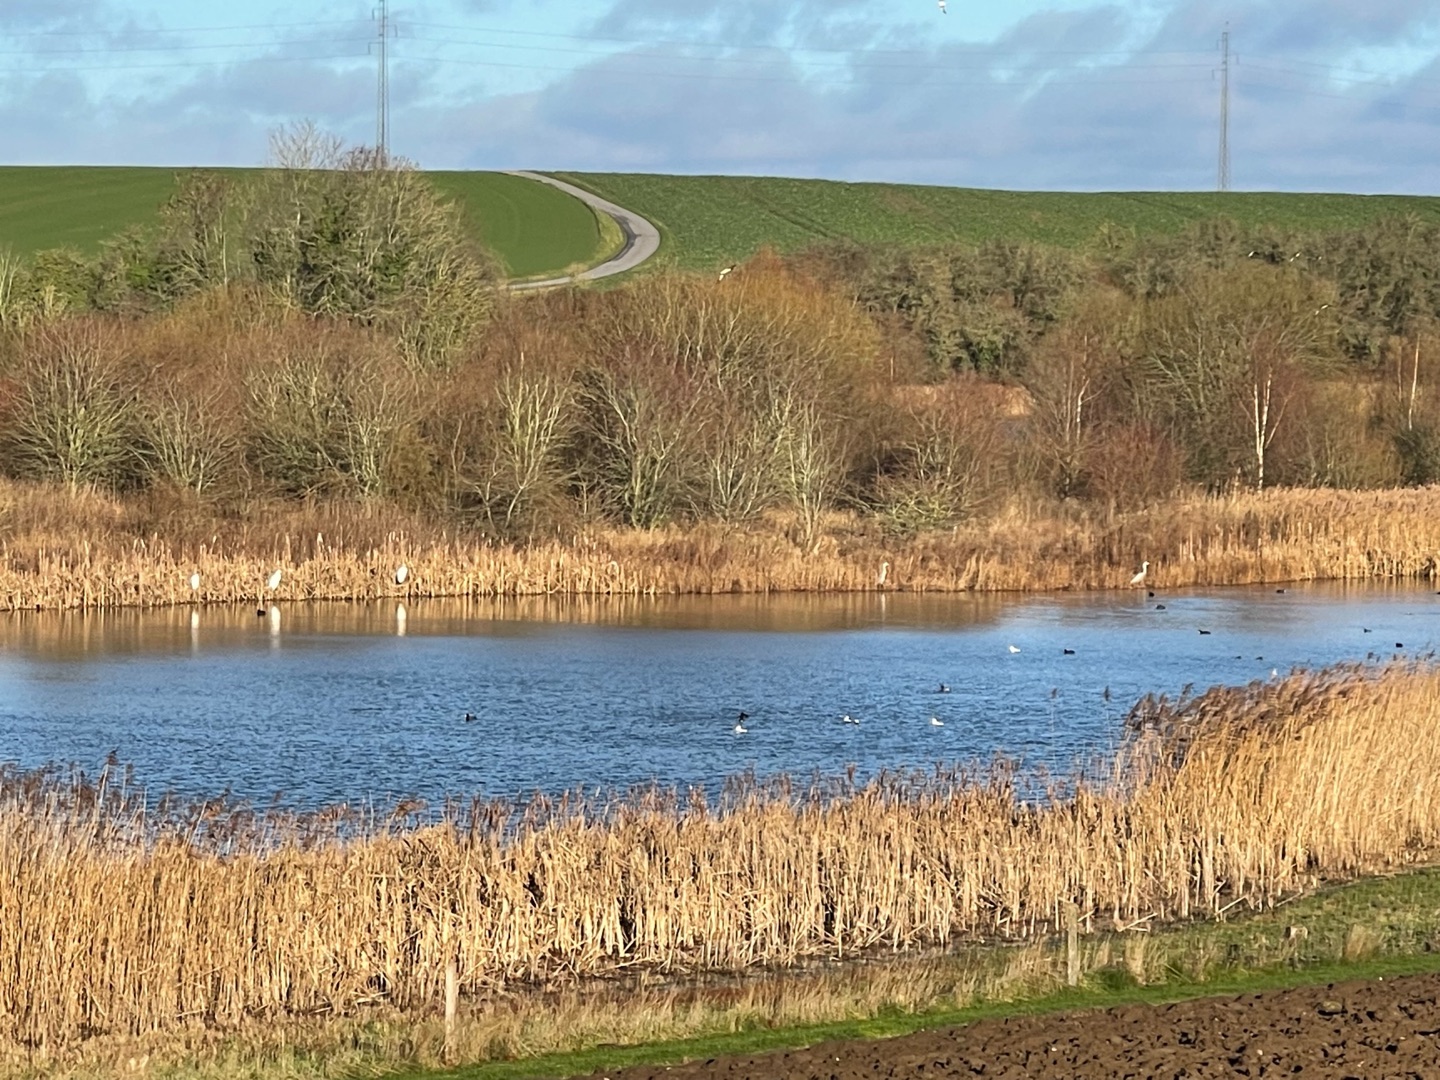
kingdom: Animalia
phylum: Chordata
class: Aves
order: Pelecaniformes
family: Ardeidae
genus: Ardea
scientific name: Ardea alba
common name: Sølvhejre
